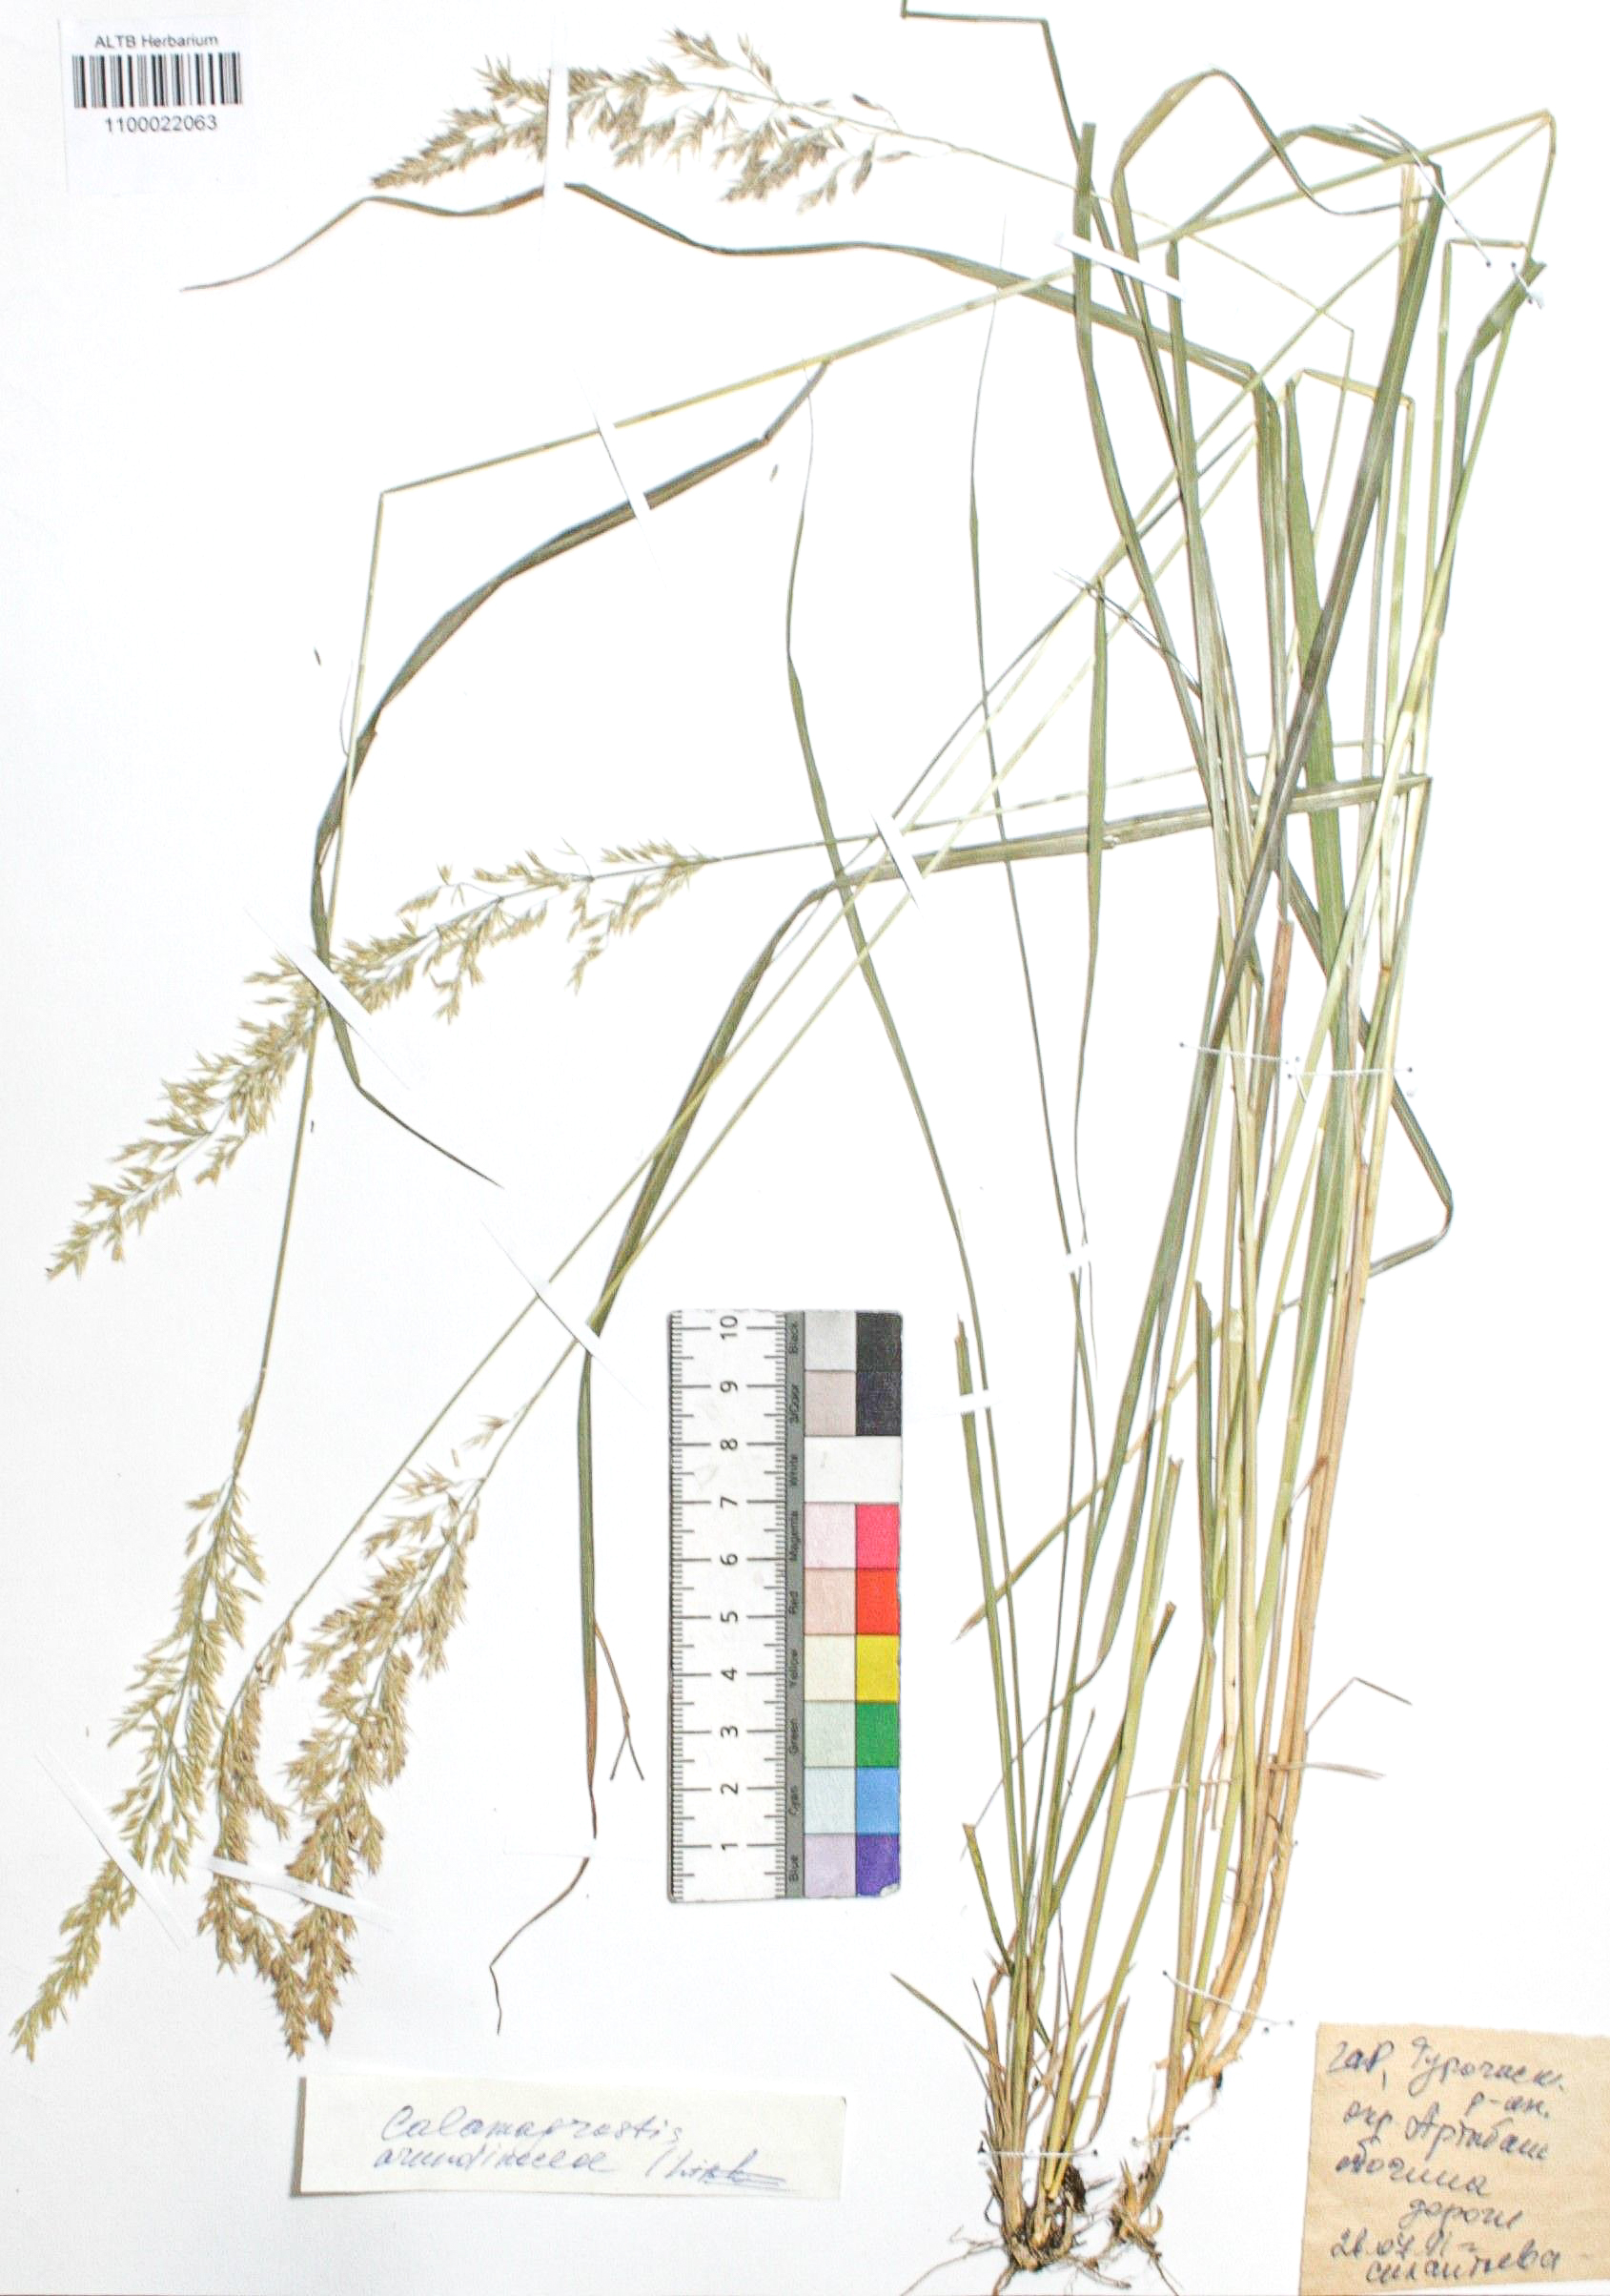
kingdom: Plantae
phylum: Tracheophyta
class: Liliopsida
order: Poales
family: Poaceae
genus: Calamagrostis
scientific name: Calamagrostis arundinacea
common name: Metskastik
